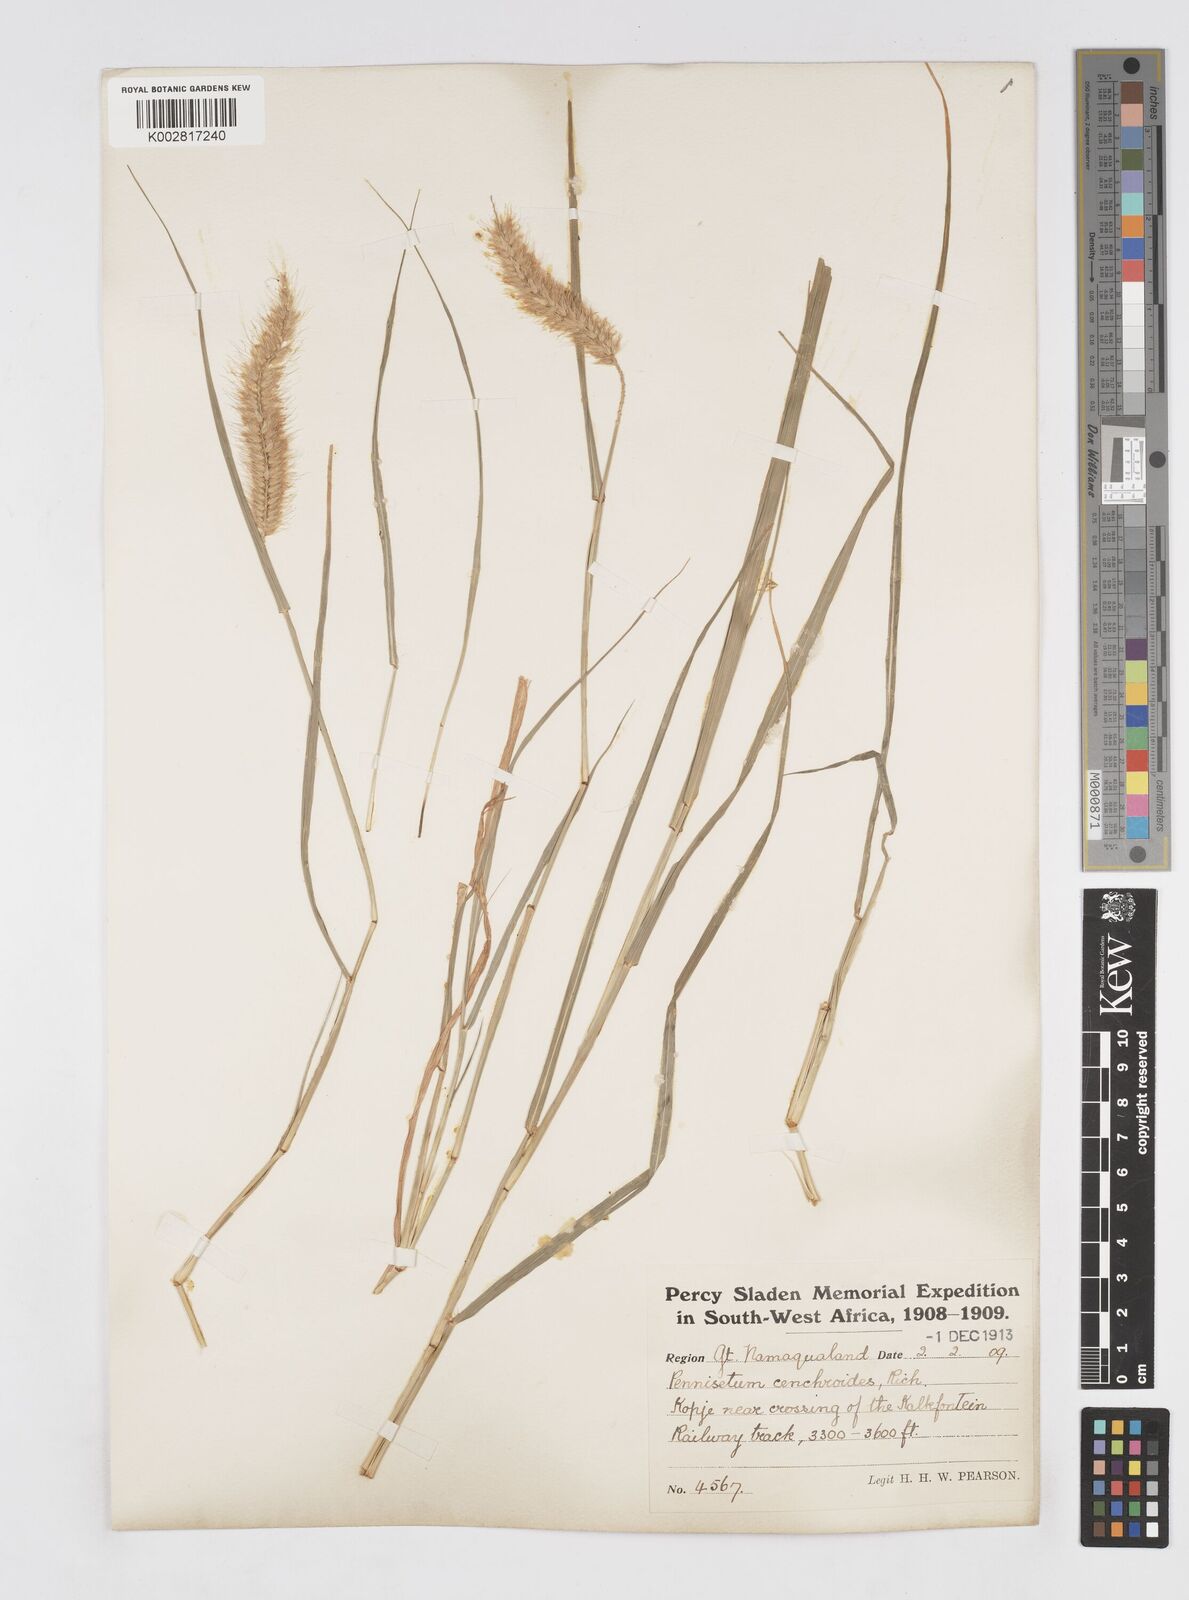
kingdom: Plantae
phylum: Tracheophyta
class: Liliopsida
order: Poales
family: Poaceae
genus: Cenchrus
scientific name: Cenchrus ciliaris
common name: Buffelgrass
